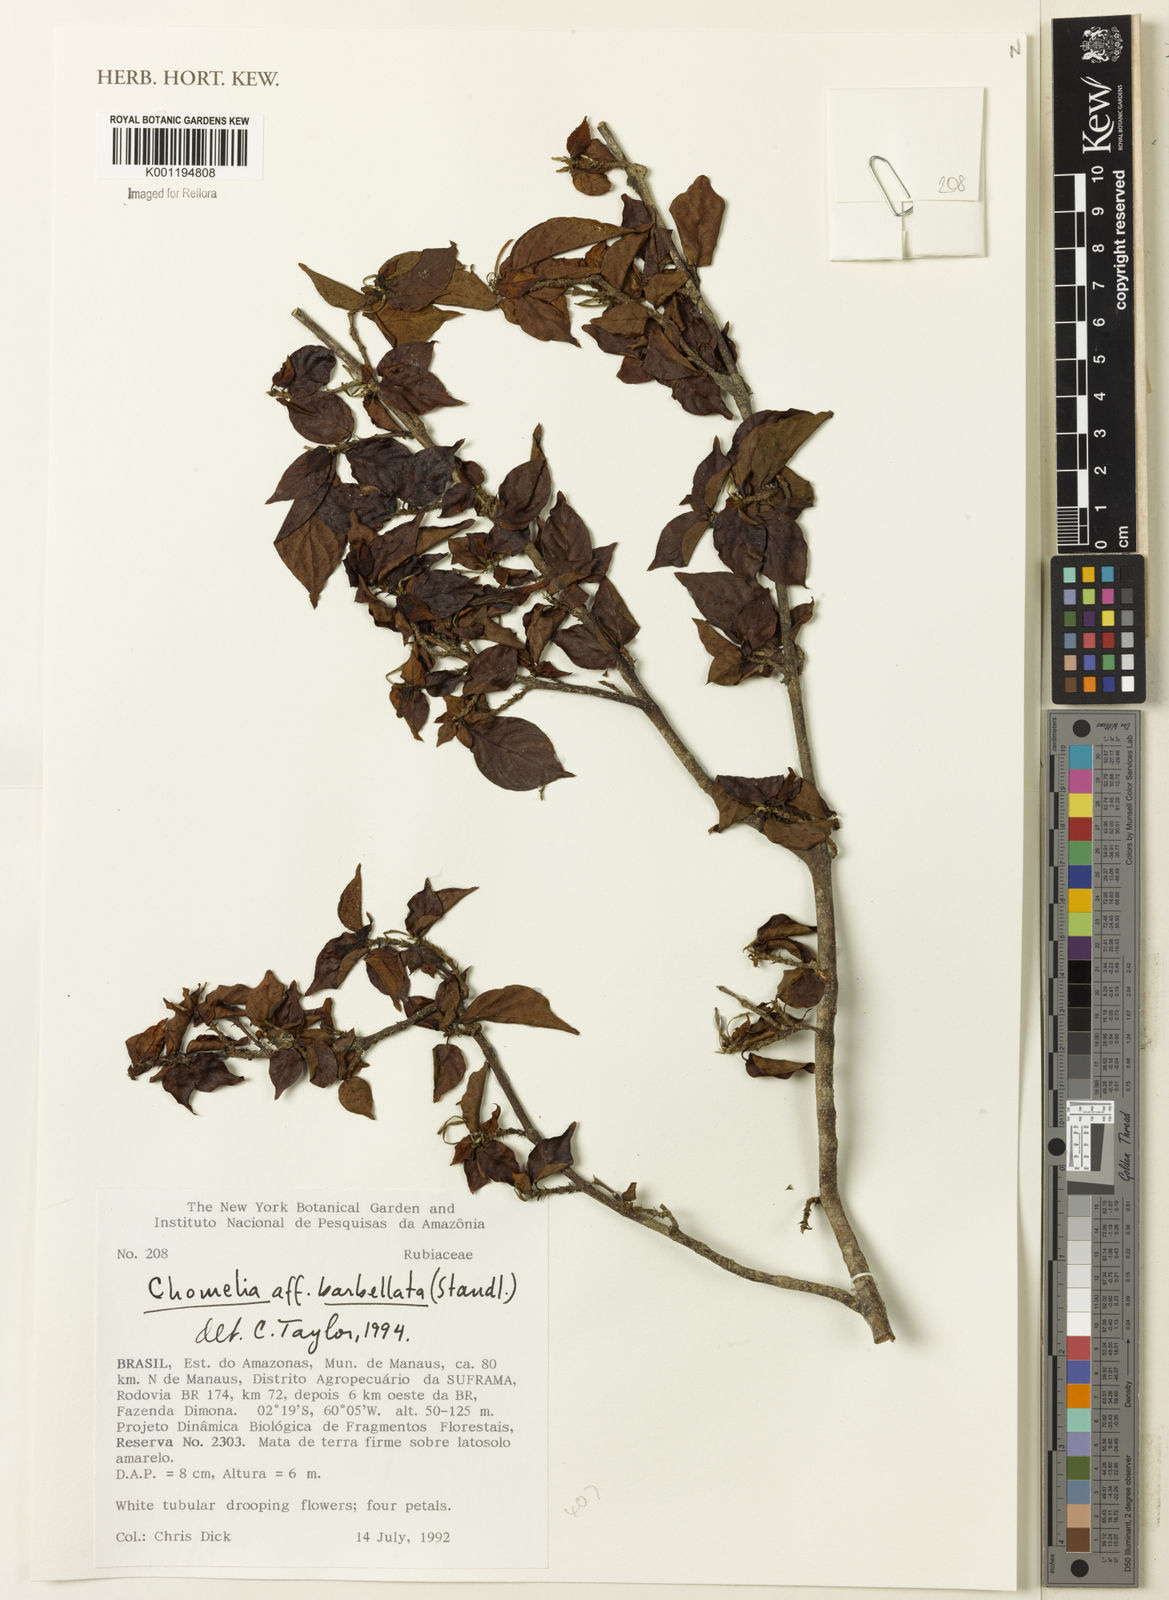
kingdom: Plantae
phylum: Tracheophyta
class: Magnoliopsida
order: Gentianales
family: Rubiaceae
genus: Chomelia
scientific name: Chomelia tenuiflora
